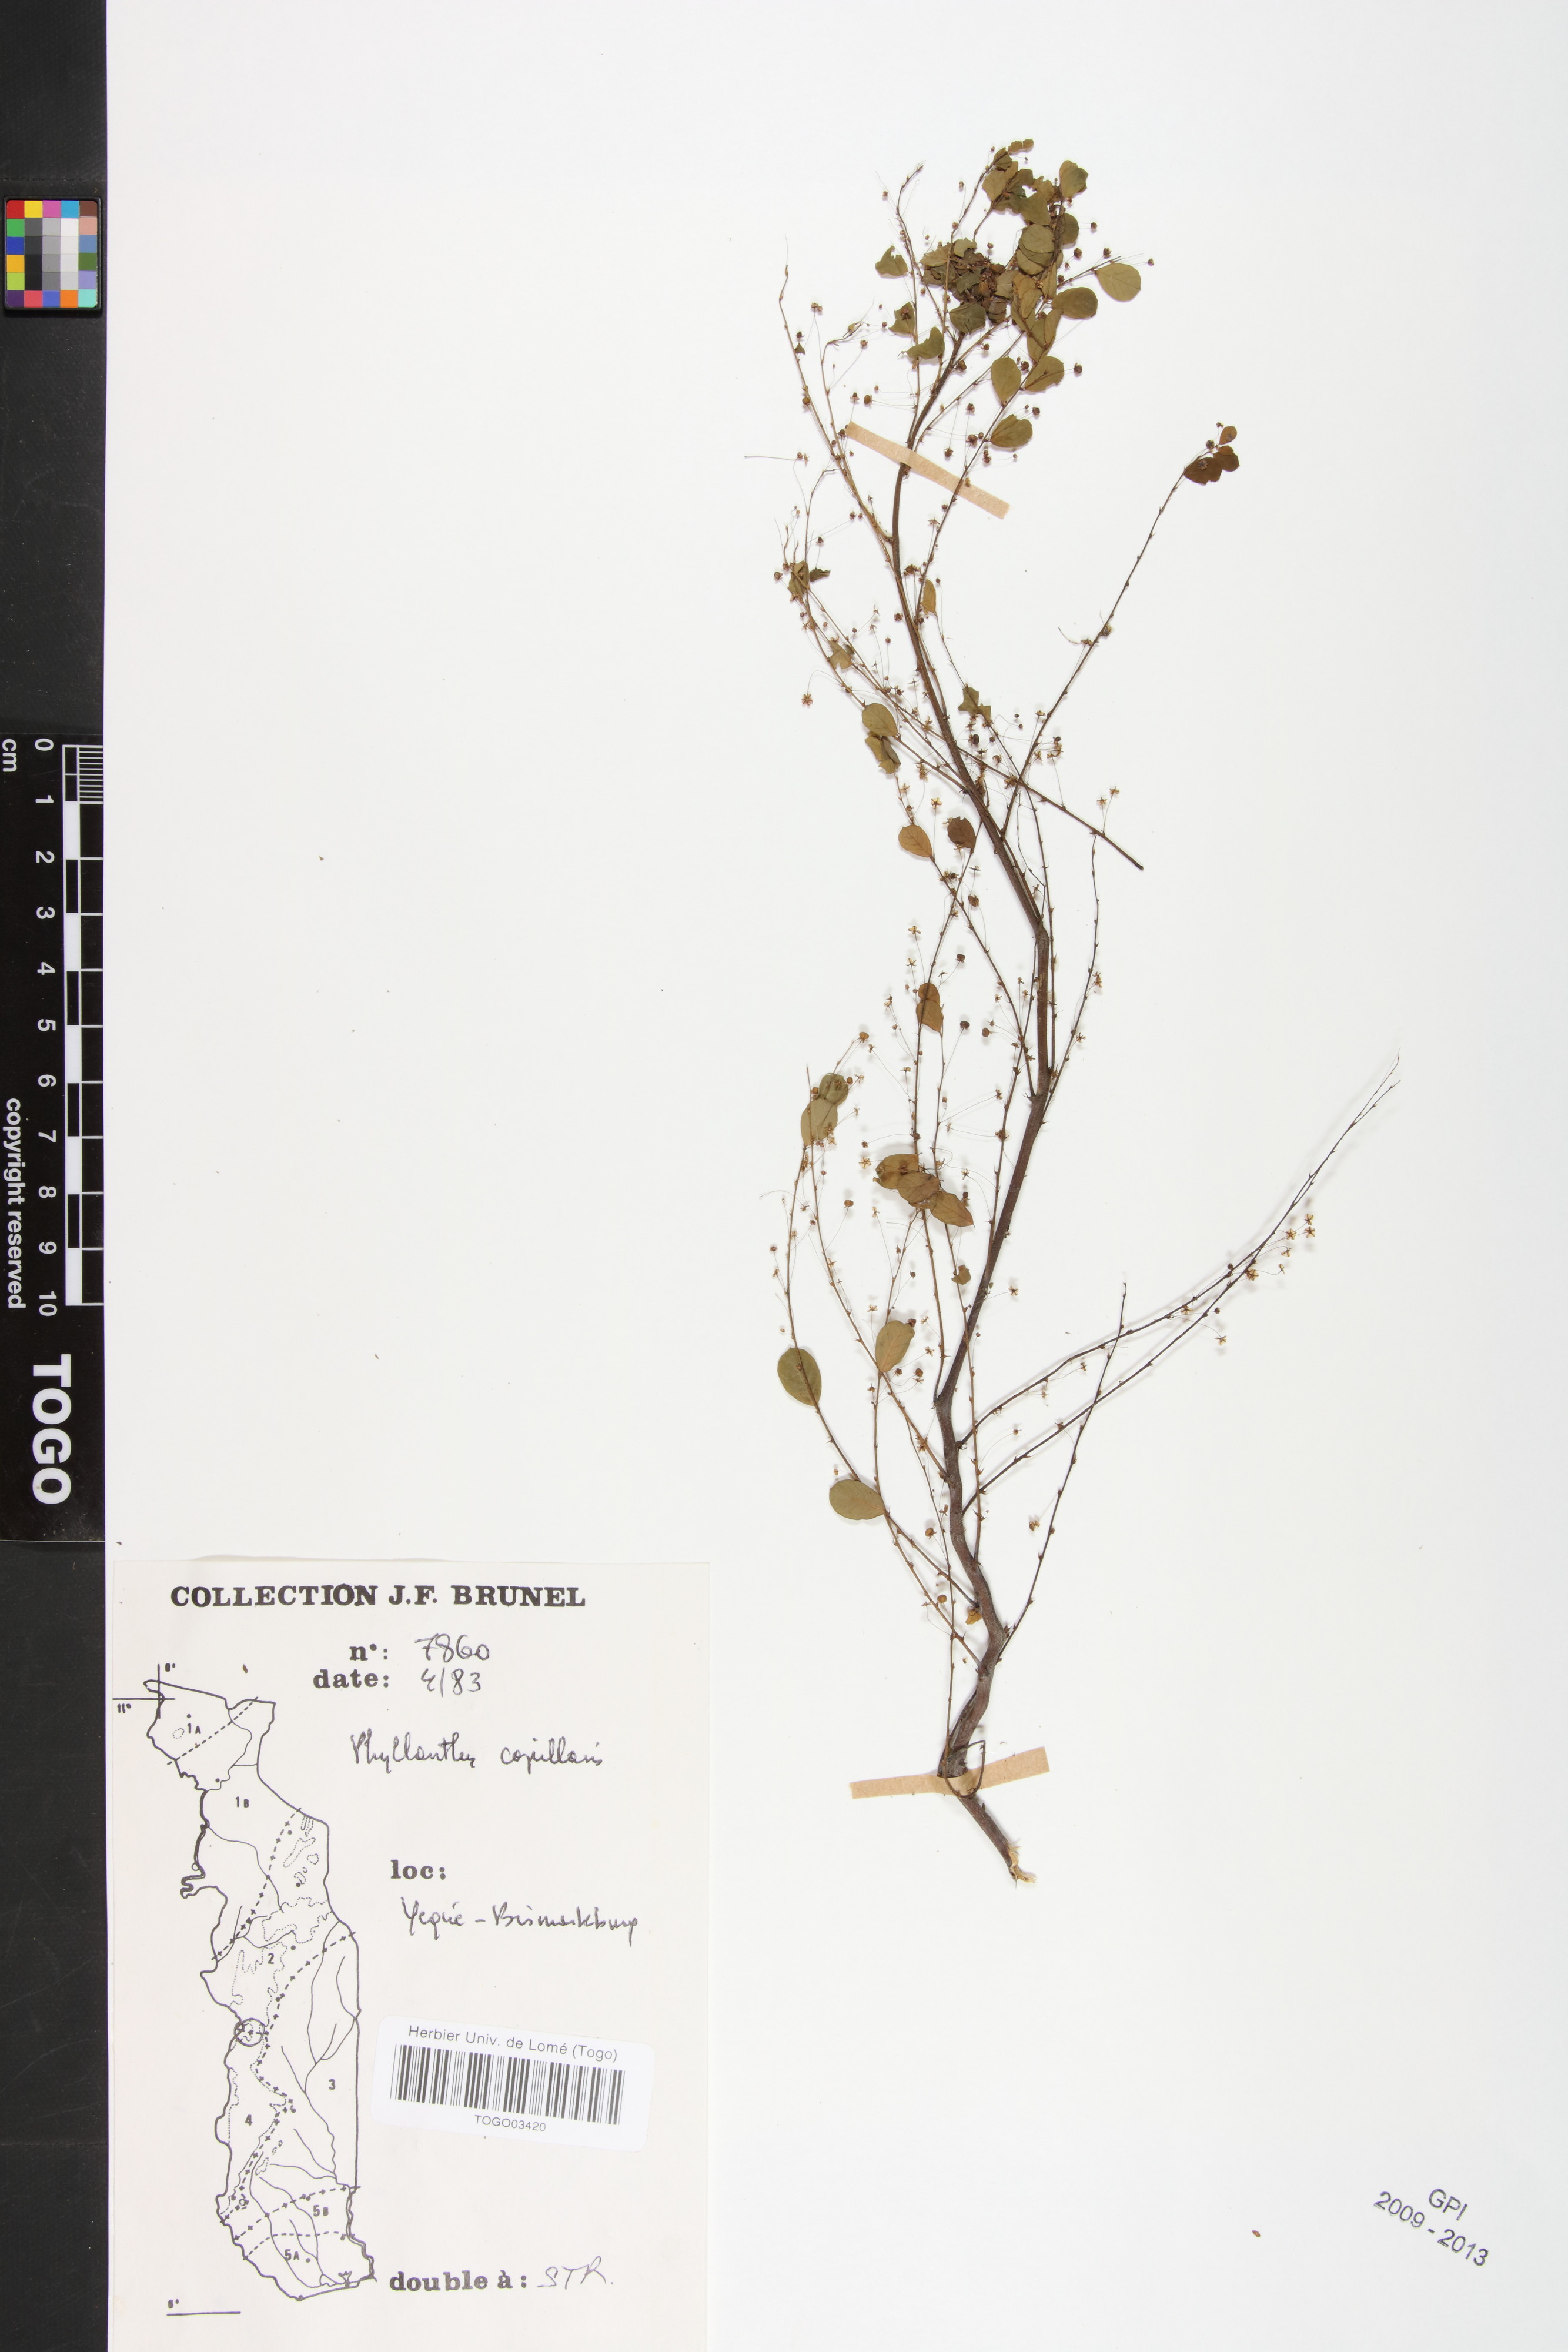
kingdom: Plantae
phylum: Tracheophyta
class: Magnoliopsida
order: Malpighiales
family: Phyllanthaceae
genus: Phyllanthus
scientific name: Phyllanthus nummulariifolius
